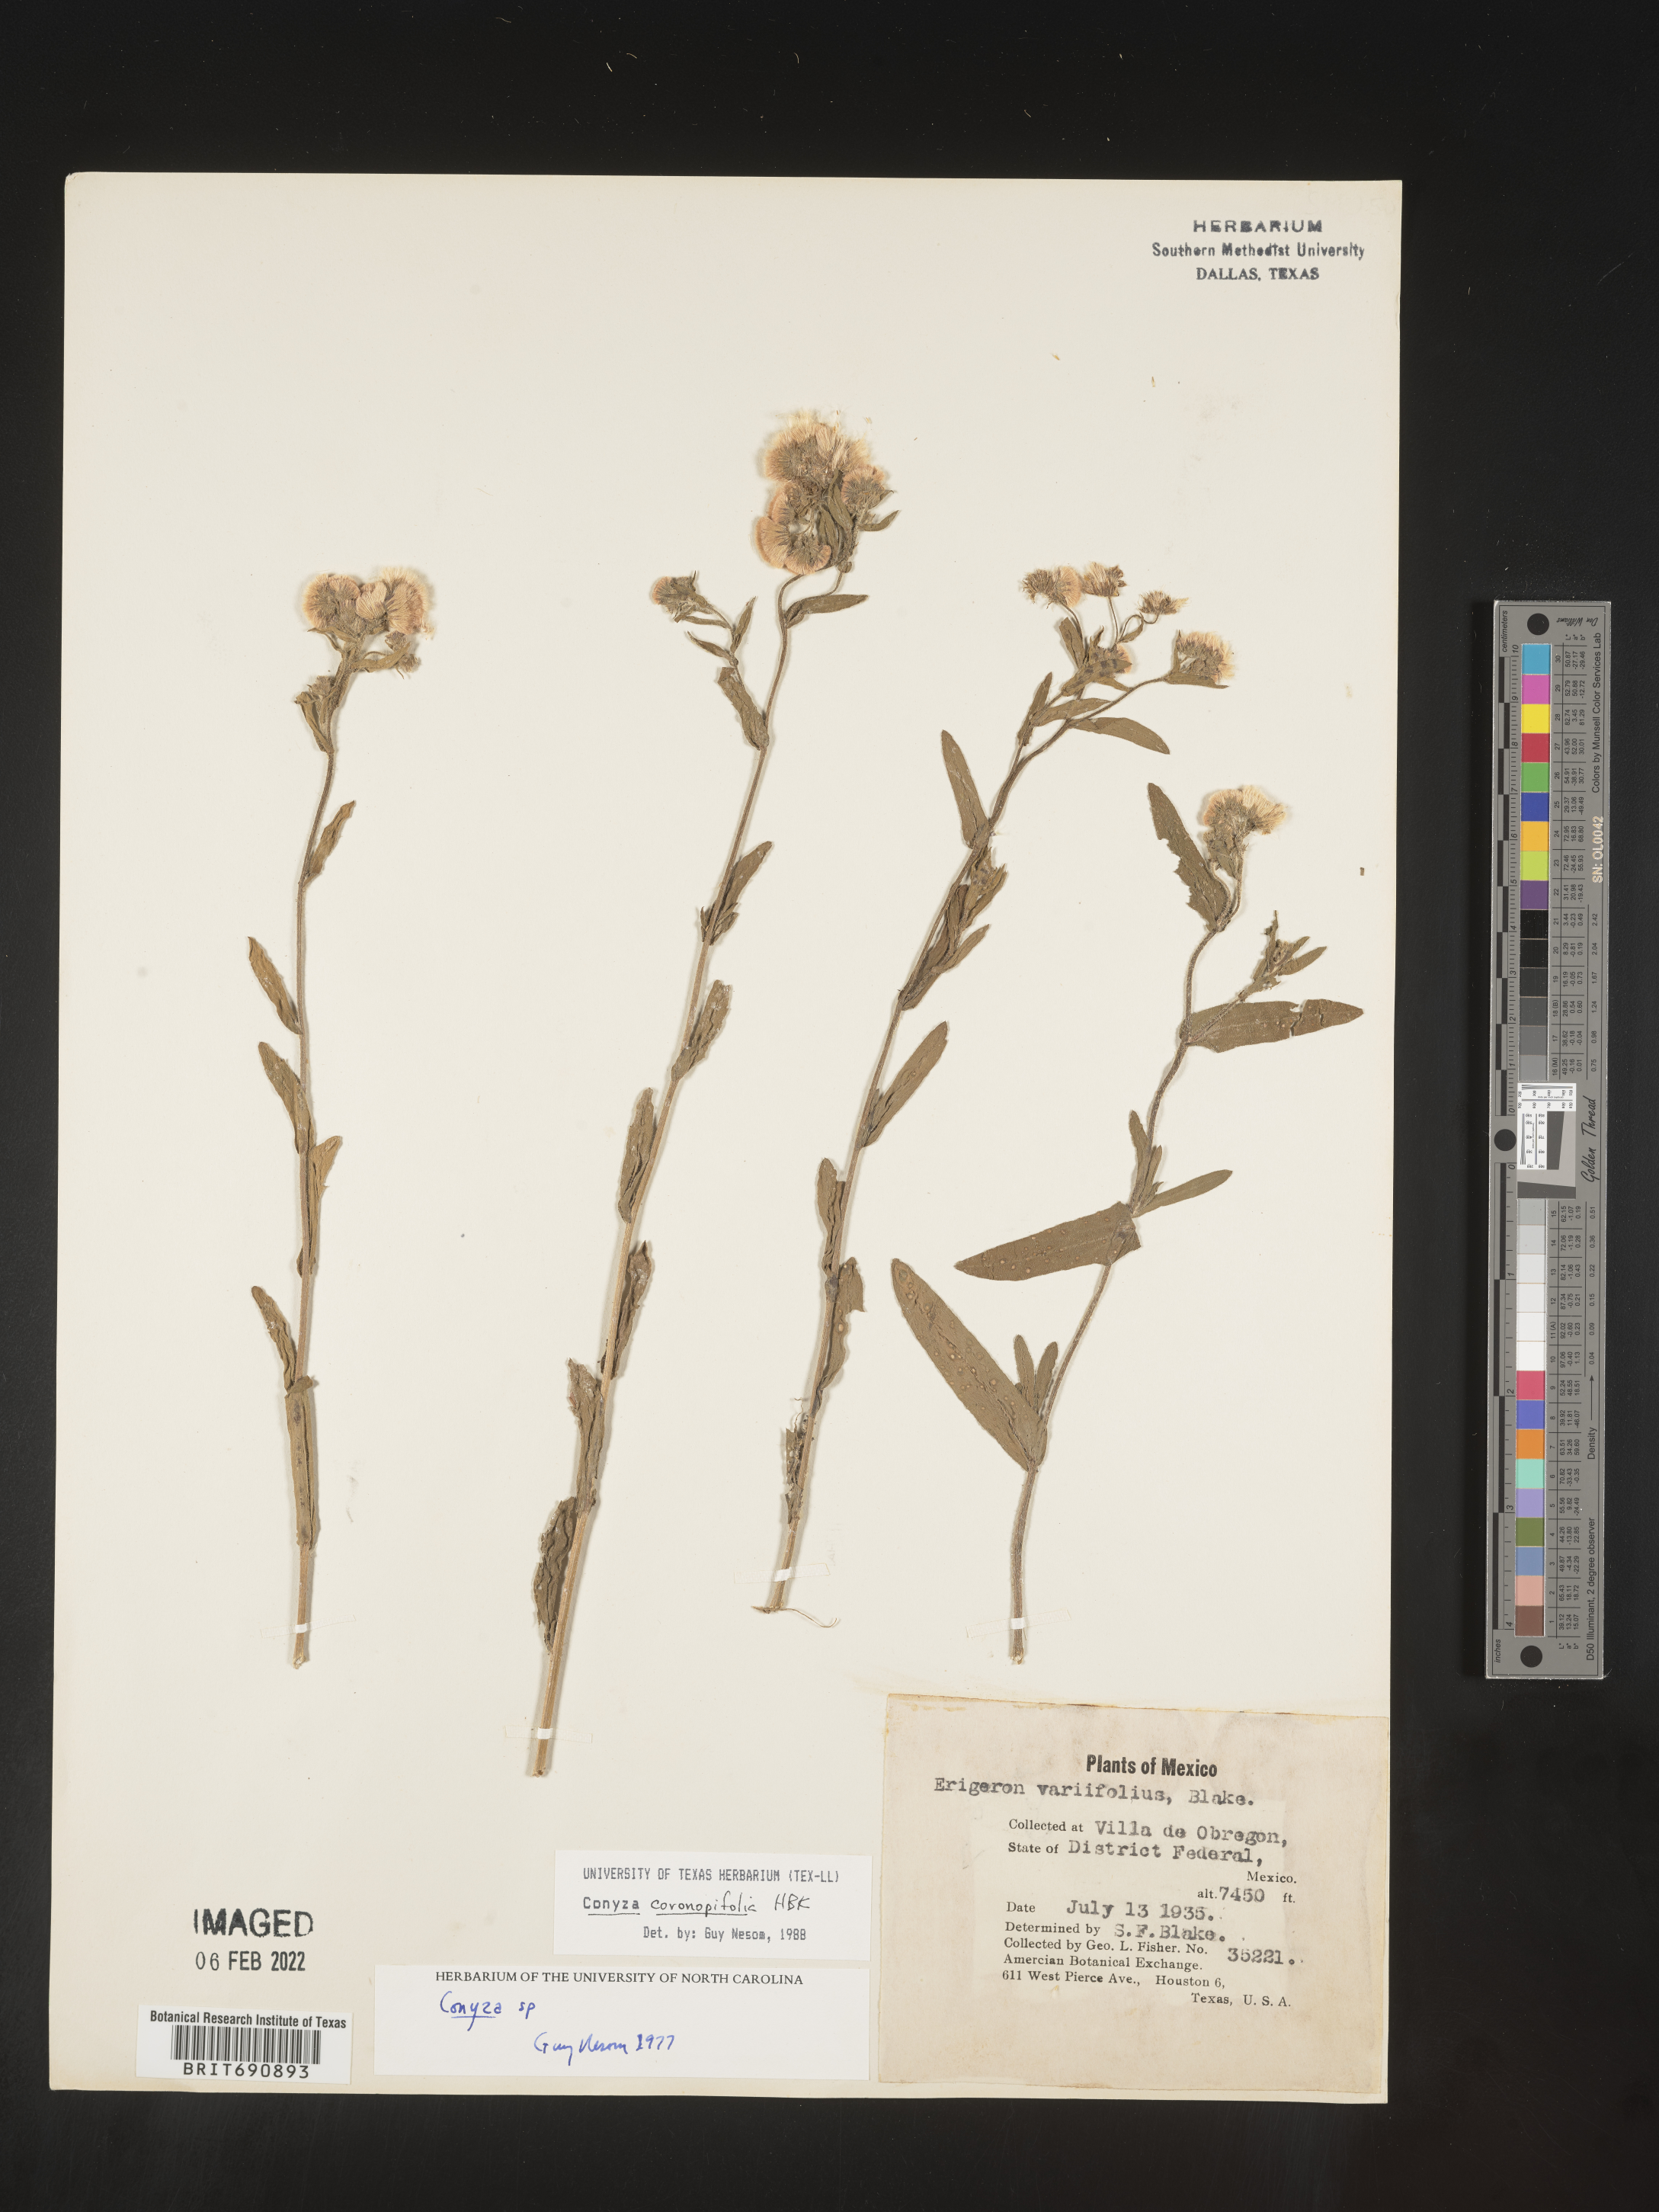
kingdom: Plantae
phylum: Tracheophyta
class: Magnoliopsida
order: Asterales
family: Asteraceae
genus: Erigeron
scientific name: Erigeron variifolius
